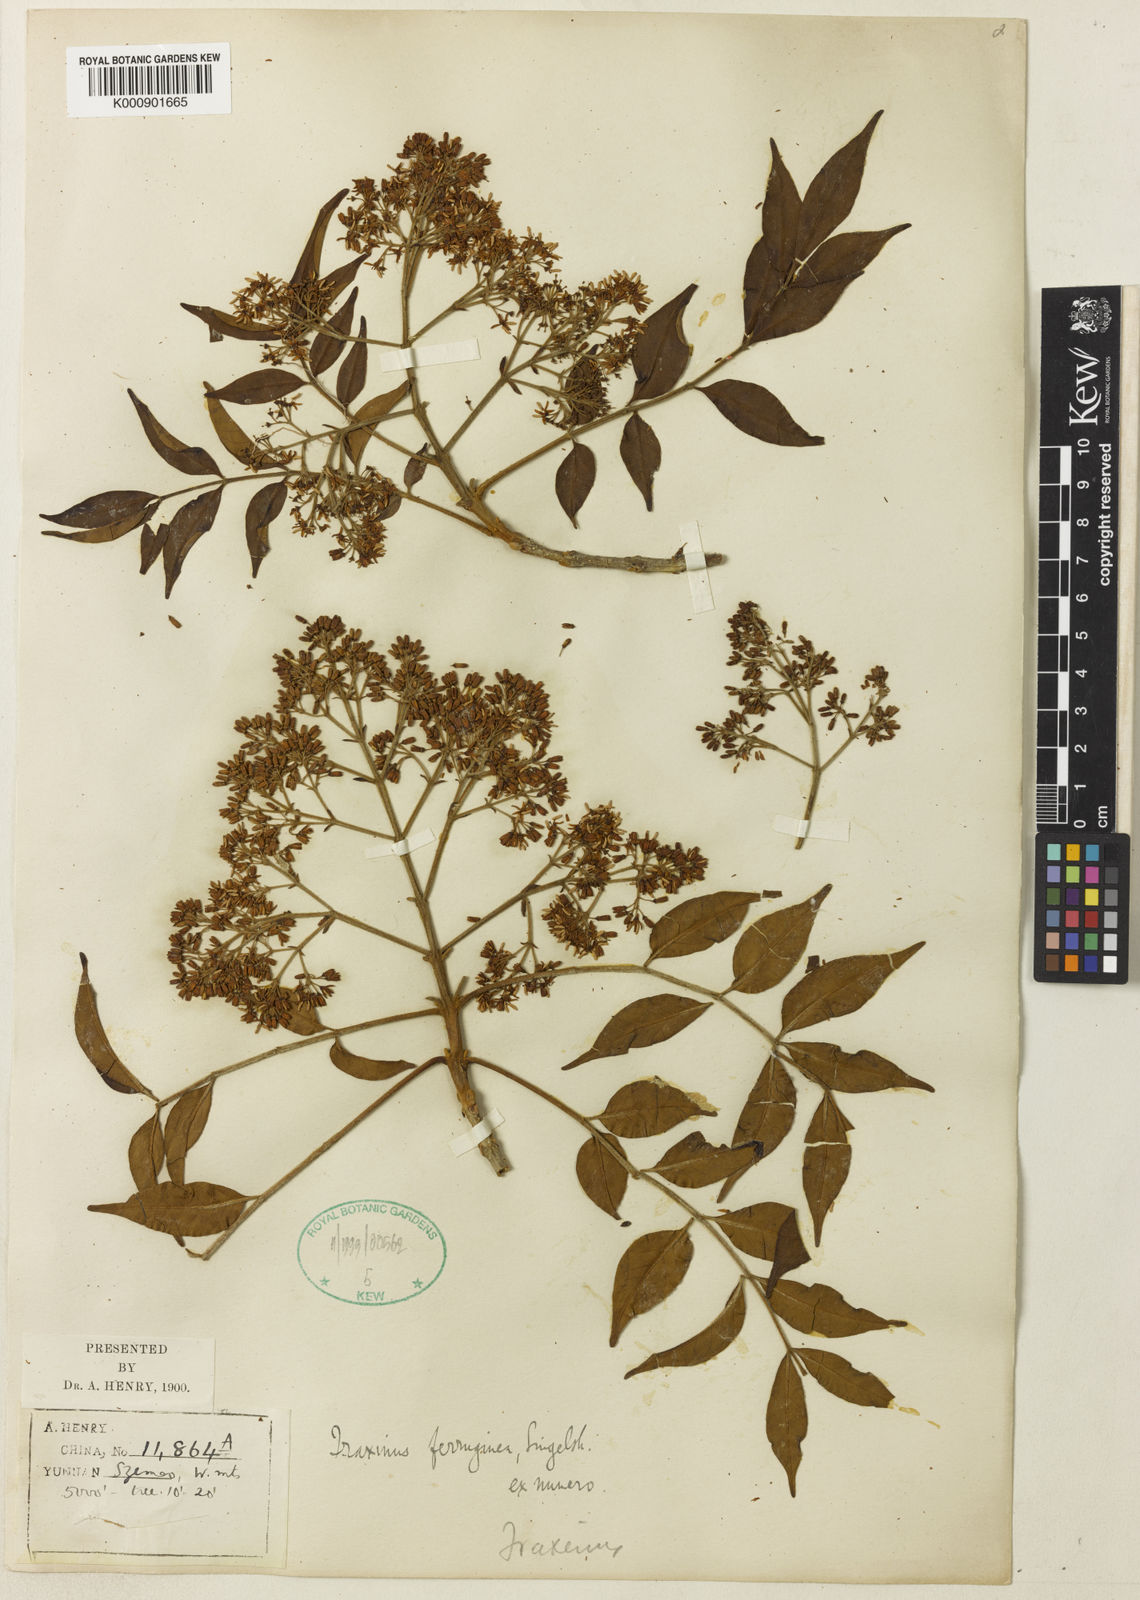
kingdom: Plantae
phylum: Tracheophyta
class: Magnoliopsida
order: Lamiales
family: Oleaceae
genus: Fraxinus
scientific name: Fraxinus griffithii
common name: Himalayan ash
